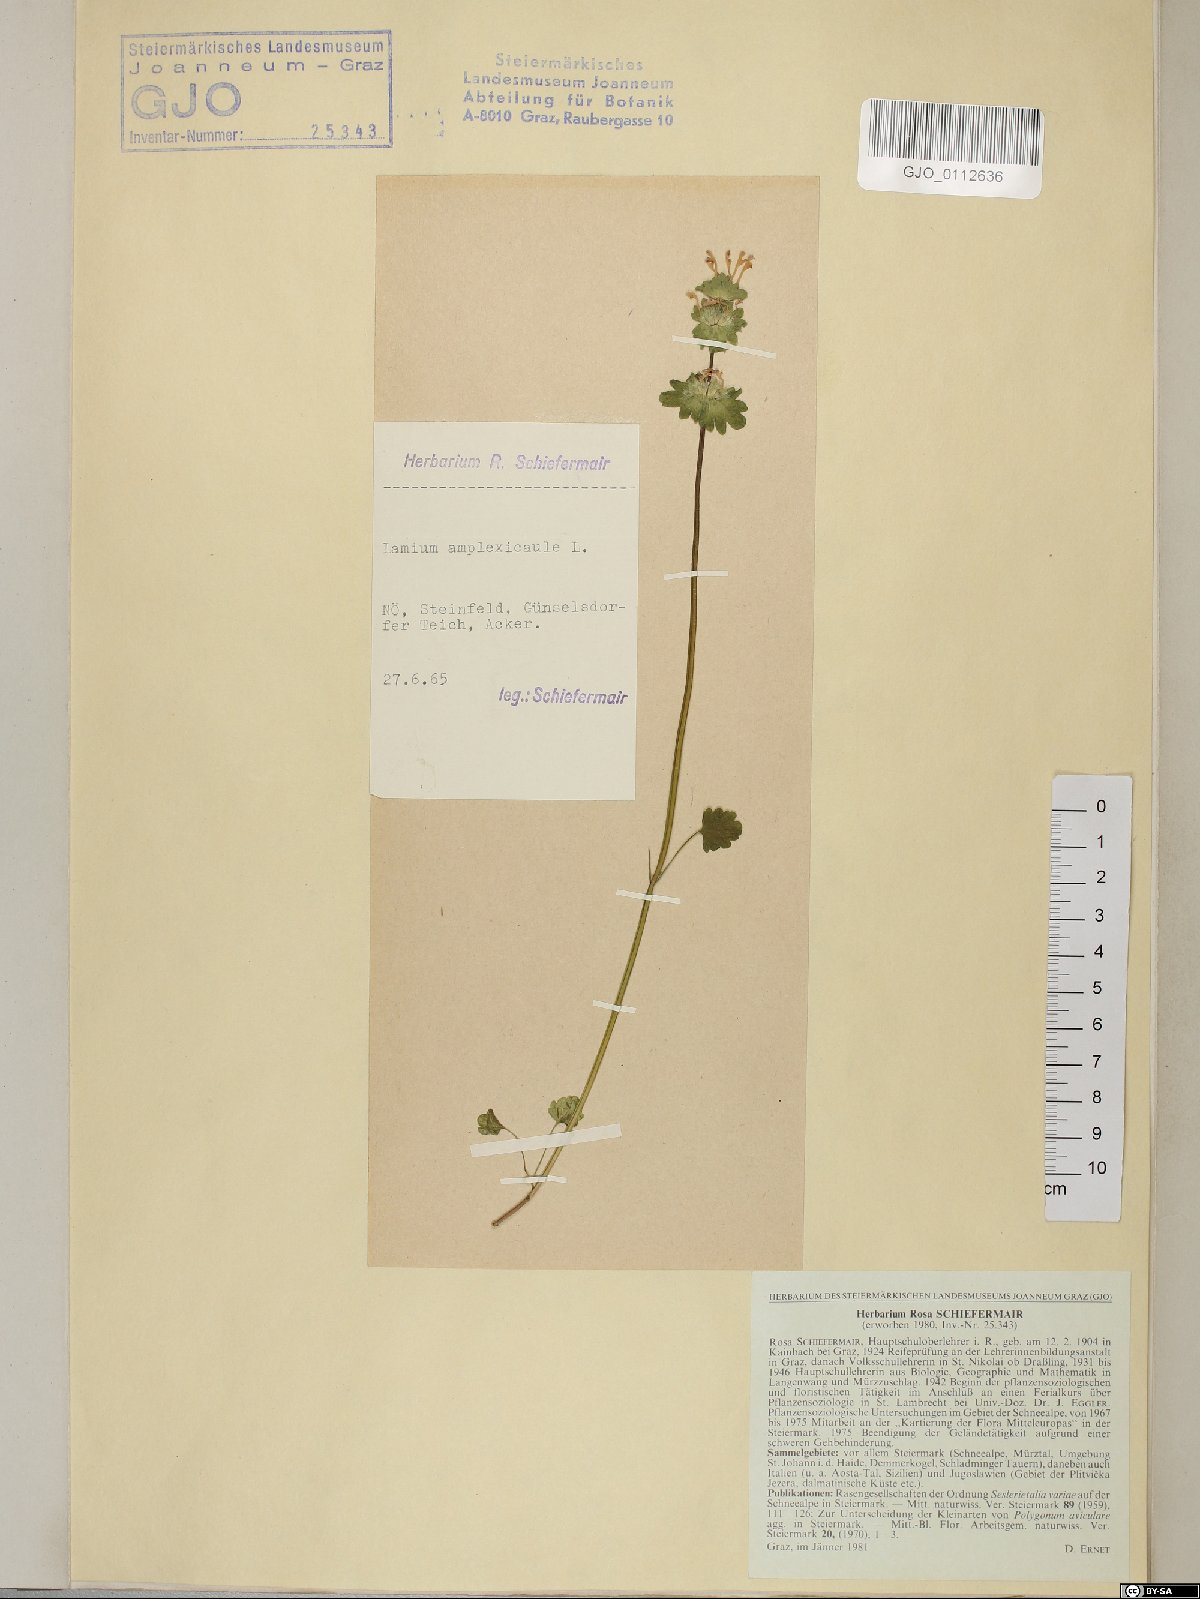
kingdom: Plantae
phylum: Tracheophyta
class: Magnoliopsida
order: Lamiales
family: Lamiaceae
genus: Lamium
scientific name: Lamium amplexicaule
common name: Henbit dead-nettle
